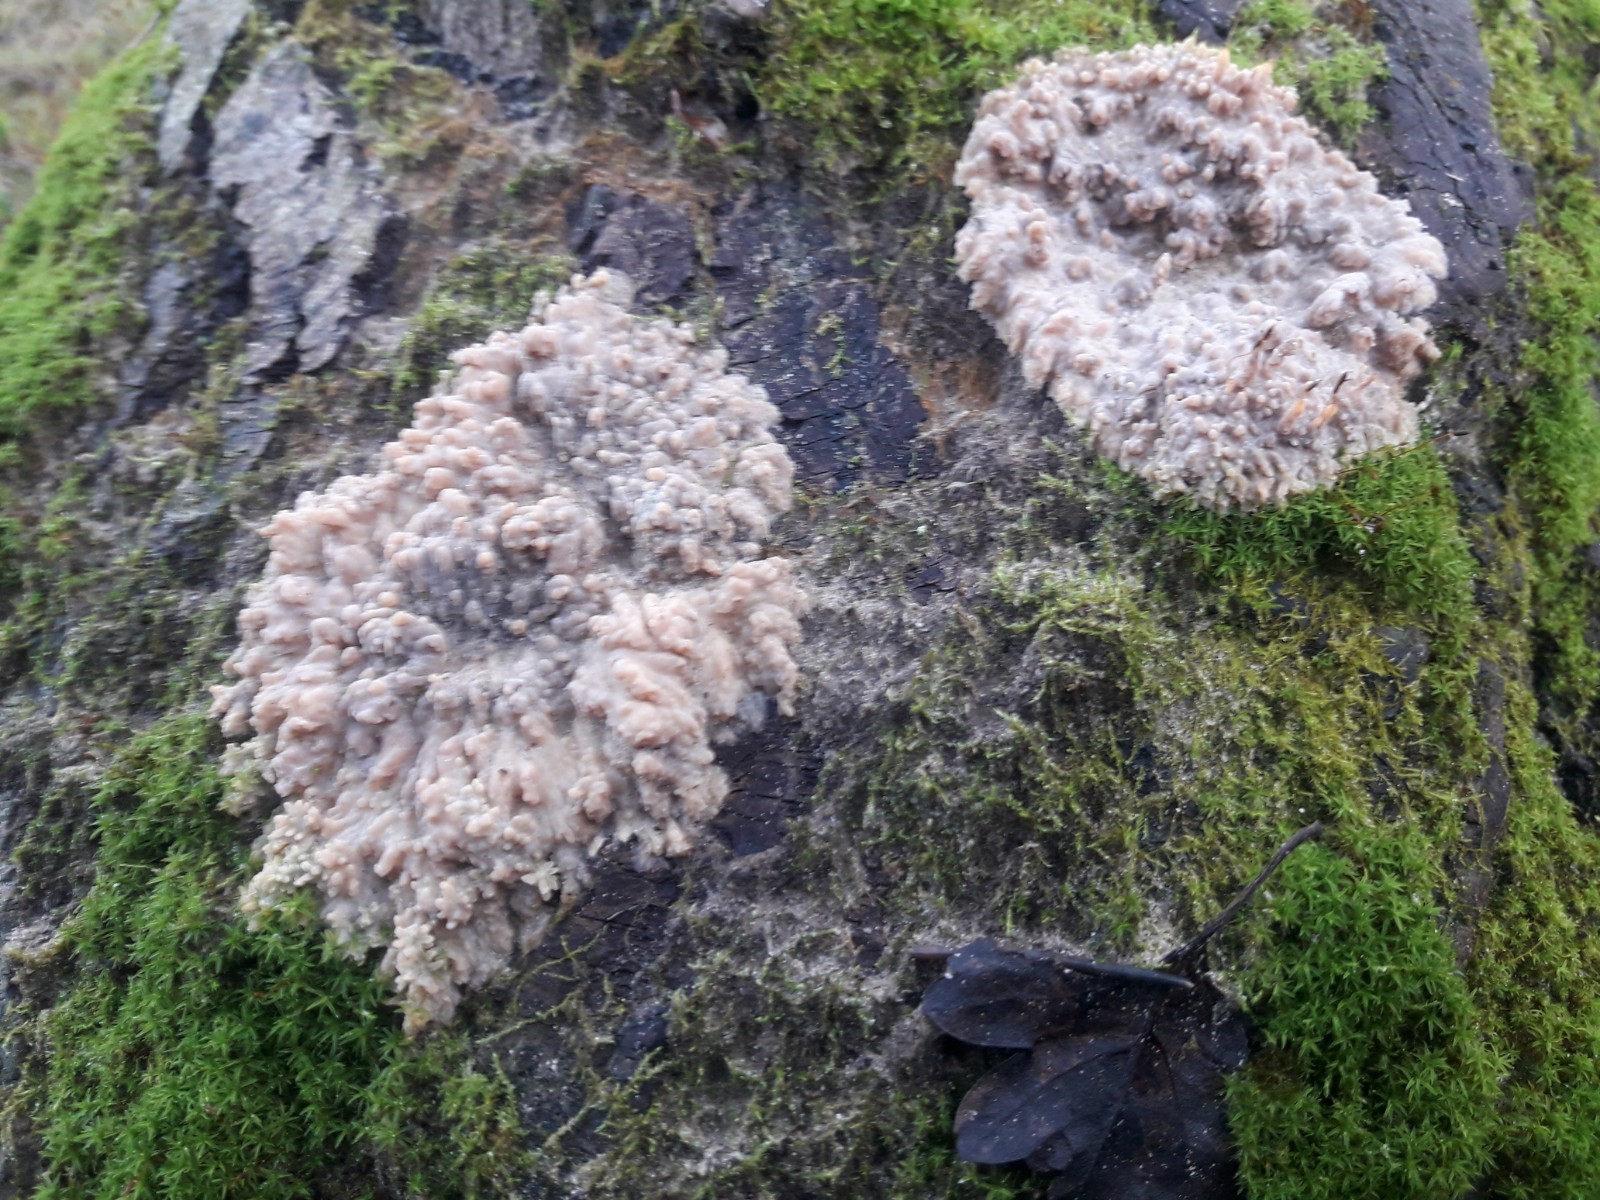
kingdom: Fungi
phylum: Basidiomycota
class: Agaricomycetes
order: Polyporales
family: Meruliaceae
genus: Phlebia
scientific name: Phlebia radiata
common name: stråle-åresvamp
